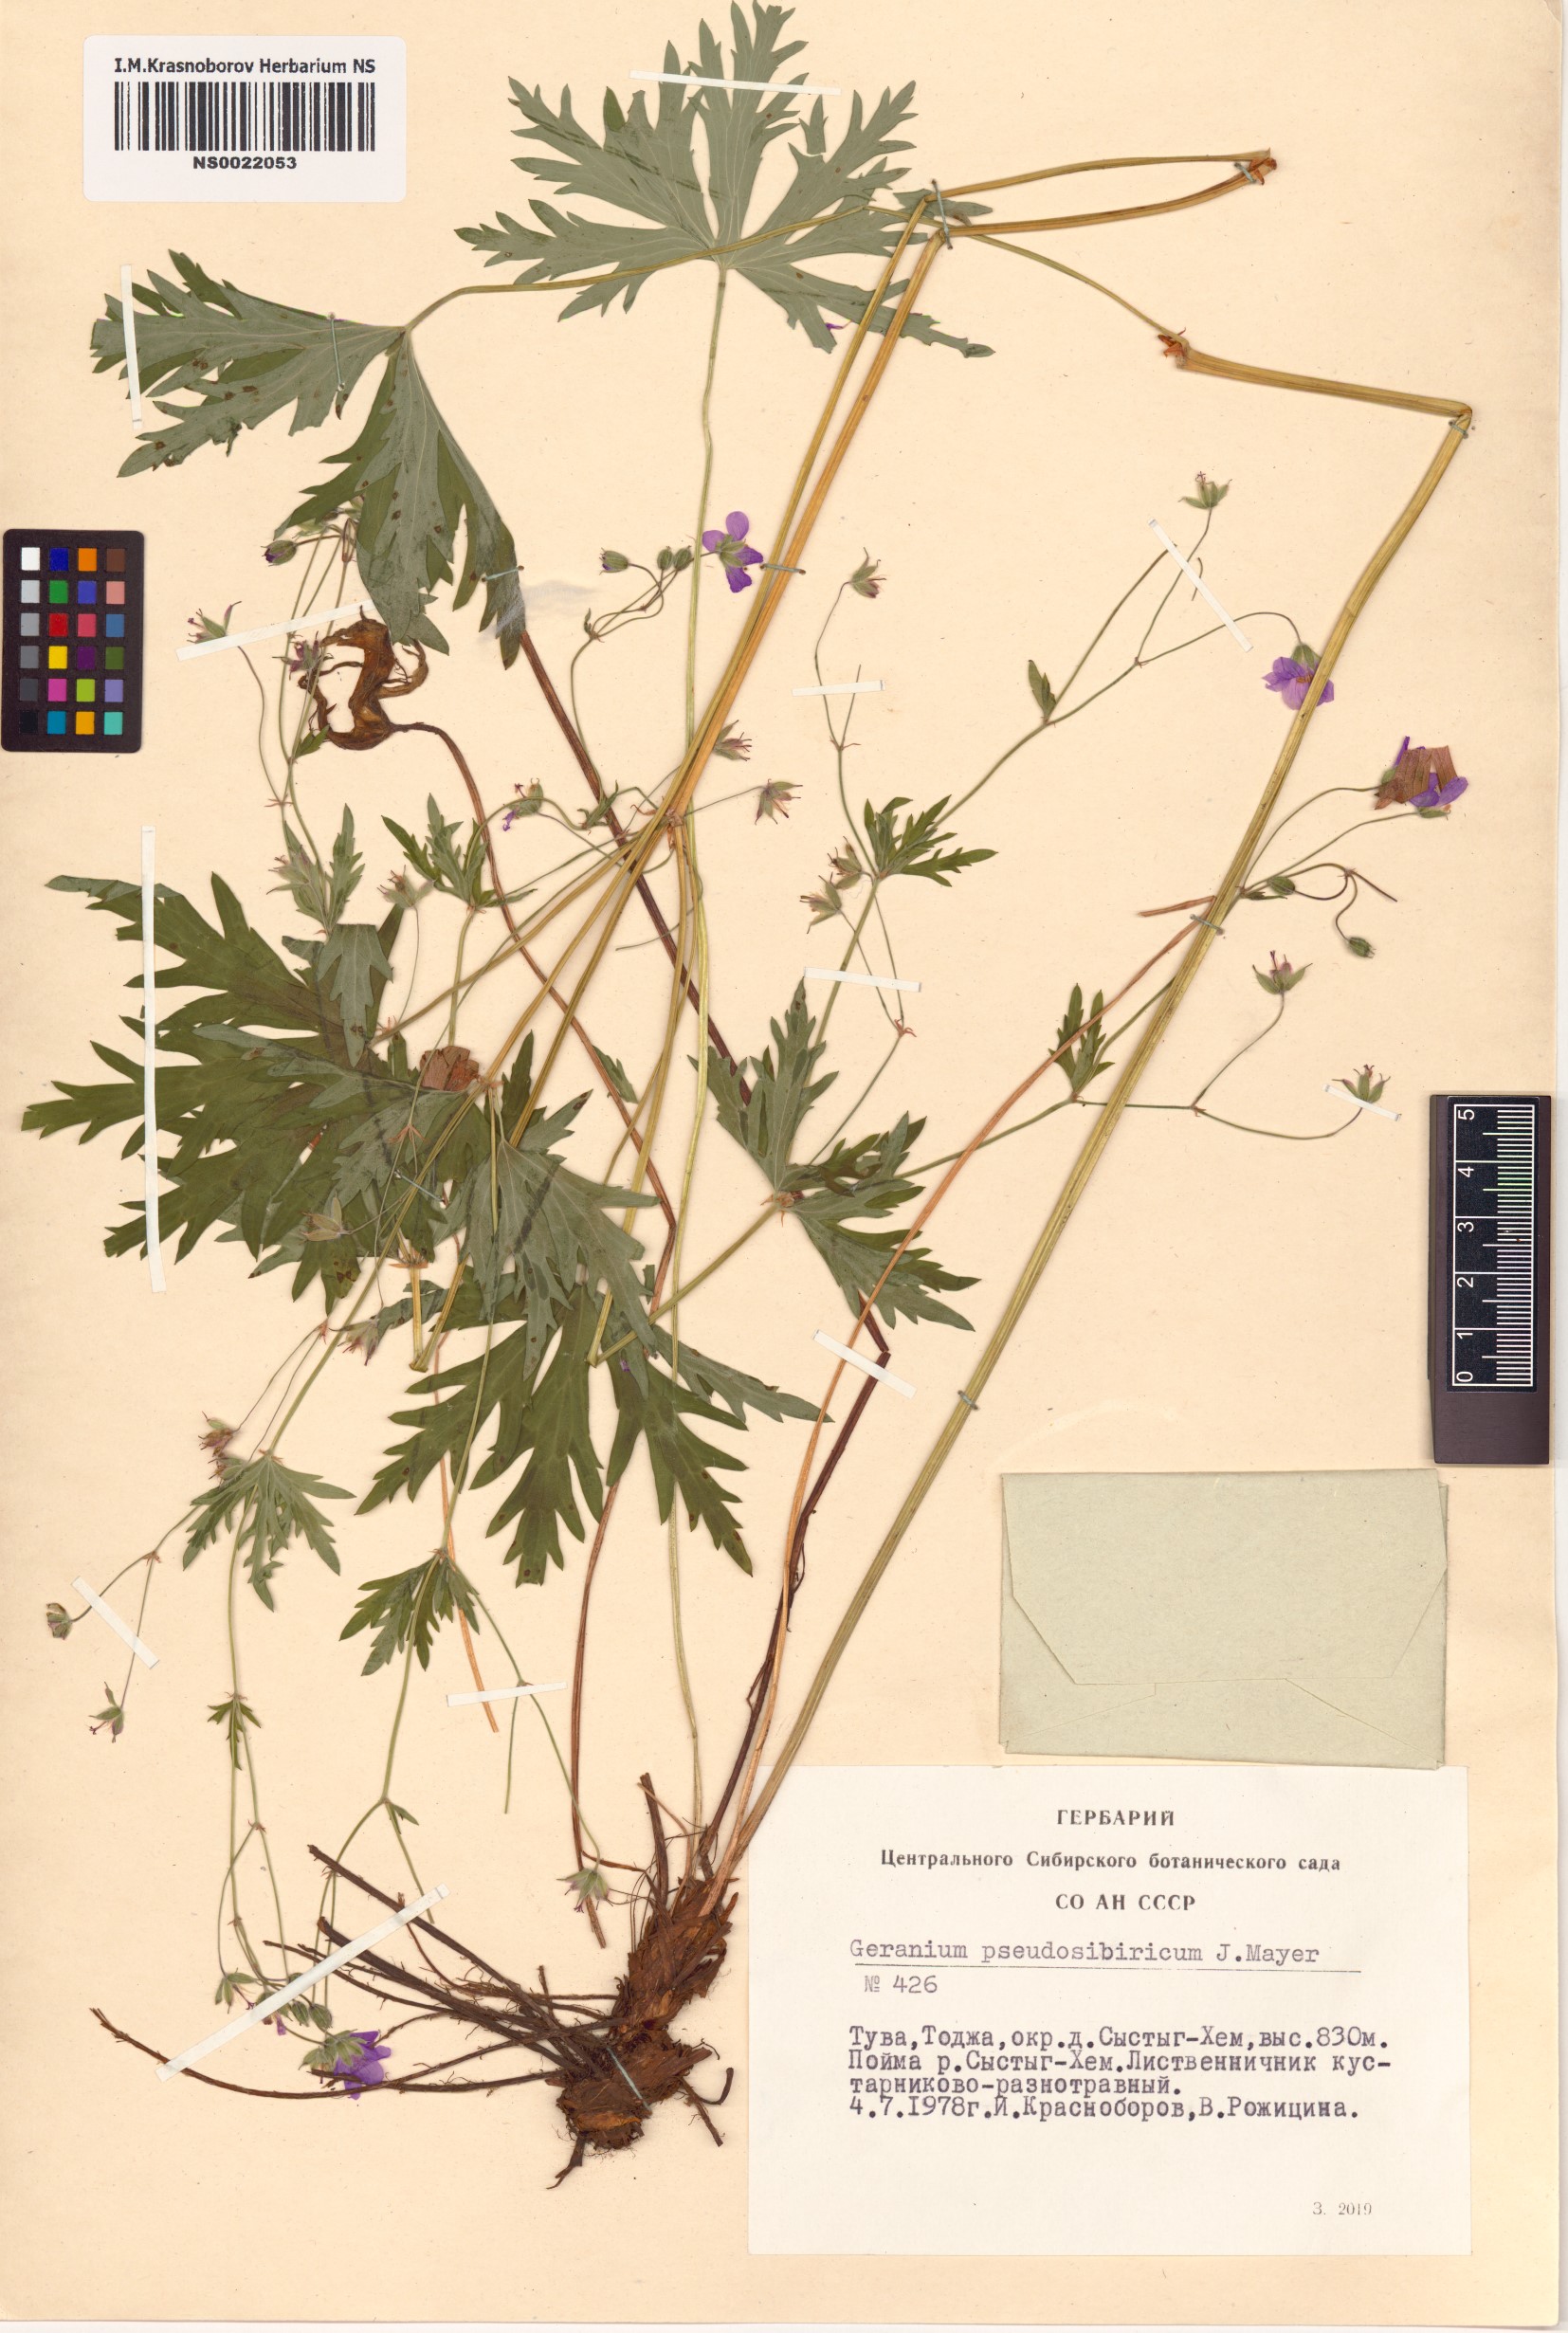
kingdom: Plantae
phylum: Tracheophyta
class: Magnoliopsida
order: Geraniales
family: Geraniaceae
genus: Geranium
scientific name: Geranium pseudosibiricum
